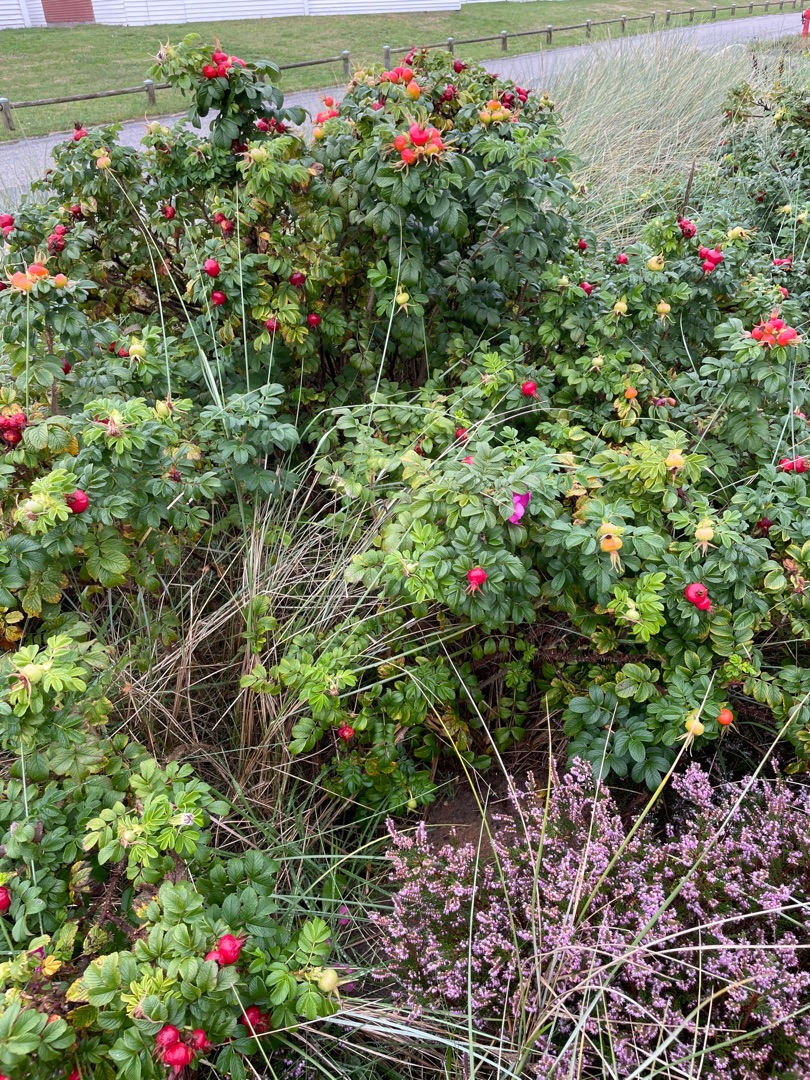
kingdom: Plantae
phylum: Tracheophyta
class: Magnoliopsida
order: Rosales
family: Rosaceae
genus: Rosa
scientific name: Rosa rugosa
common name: Rynket rose
